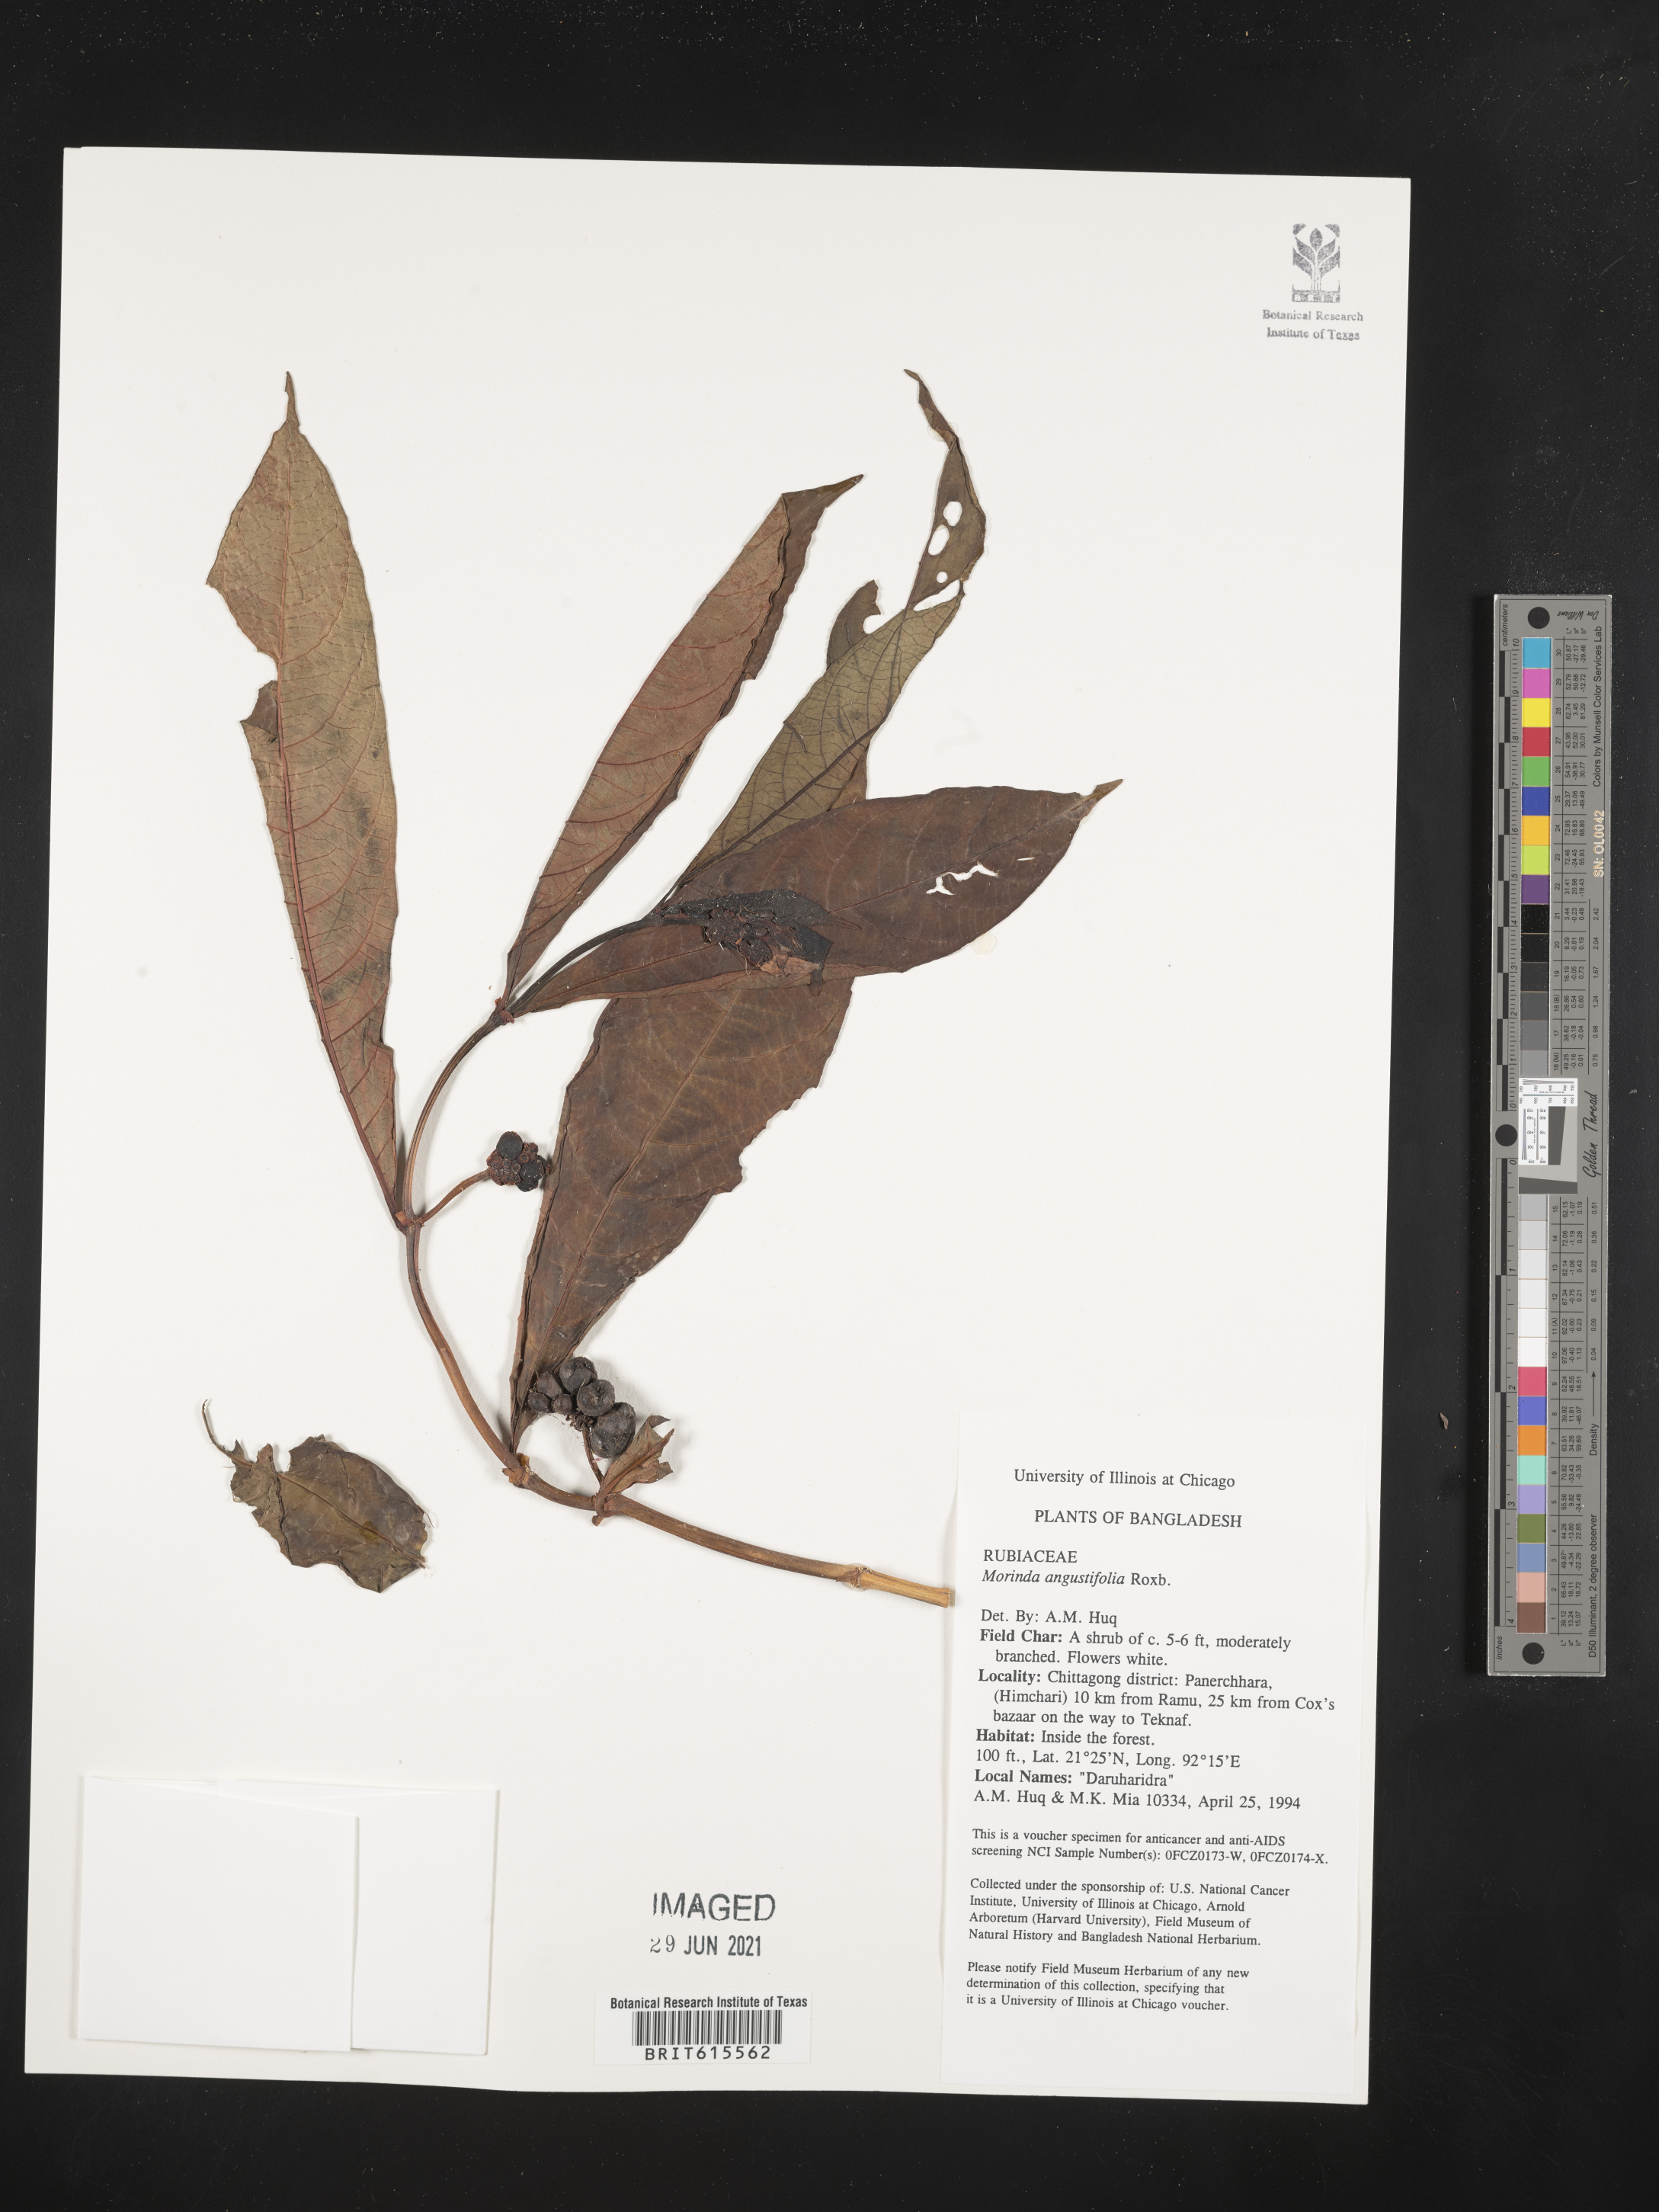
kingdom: Plantae
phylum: Tracheophyta
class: Magnoliopsida
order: Gentianales
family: Rubiaceae
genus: Morinda
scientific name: Morinda angustifolia
